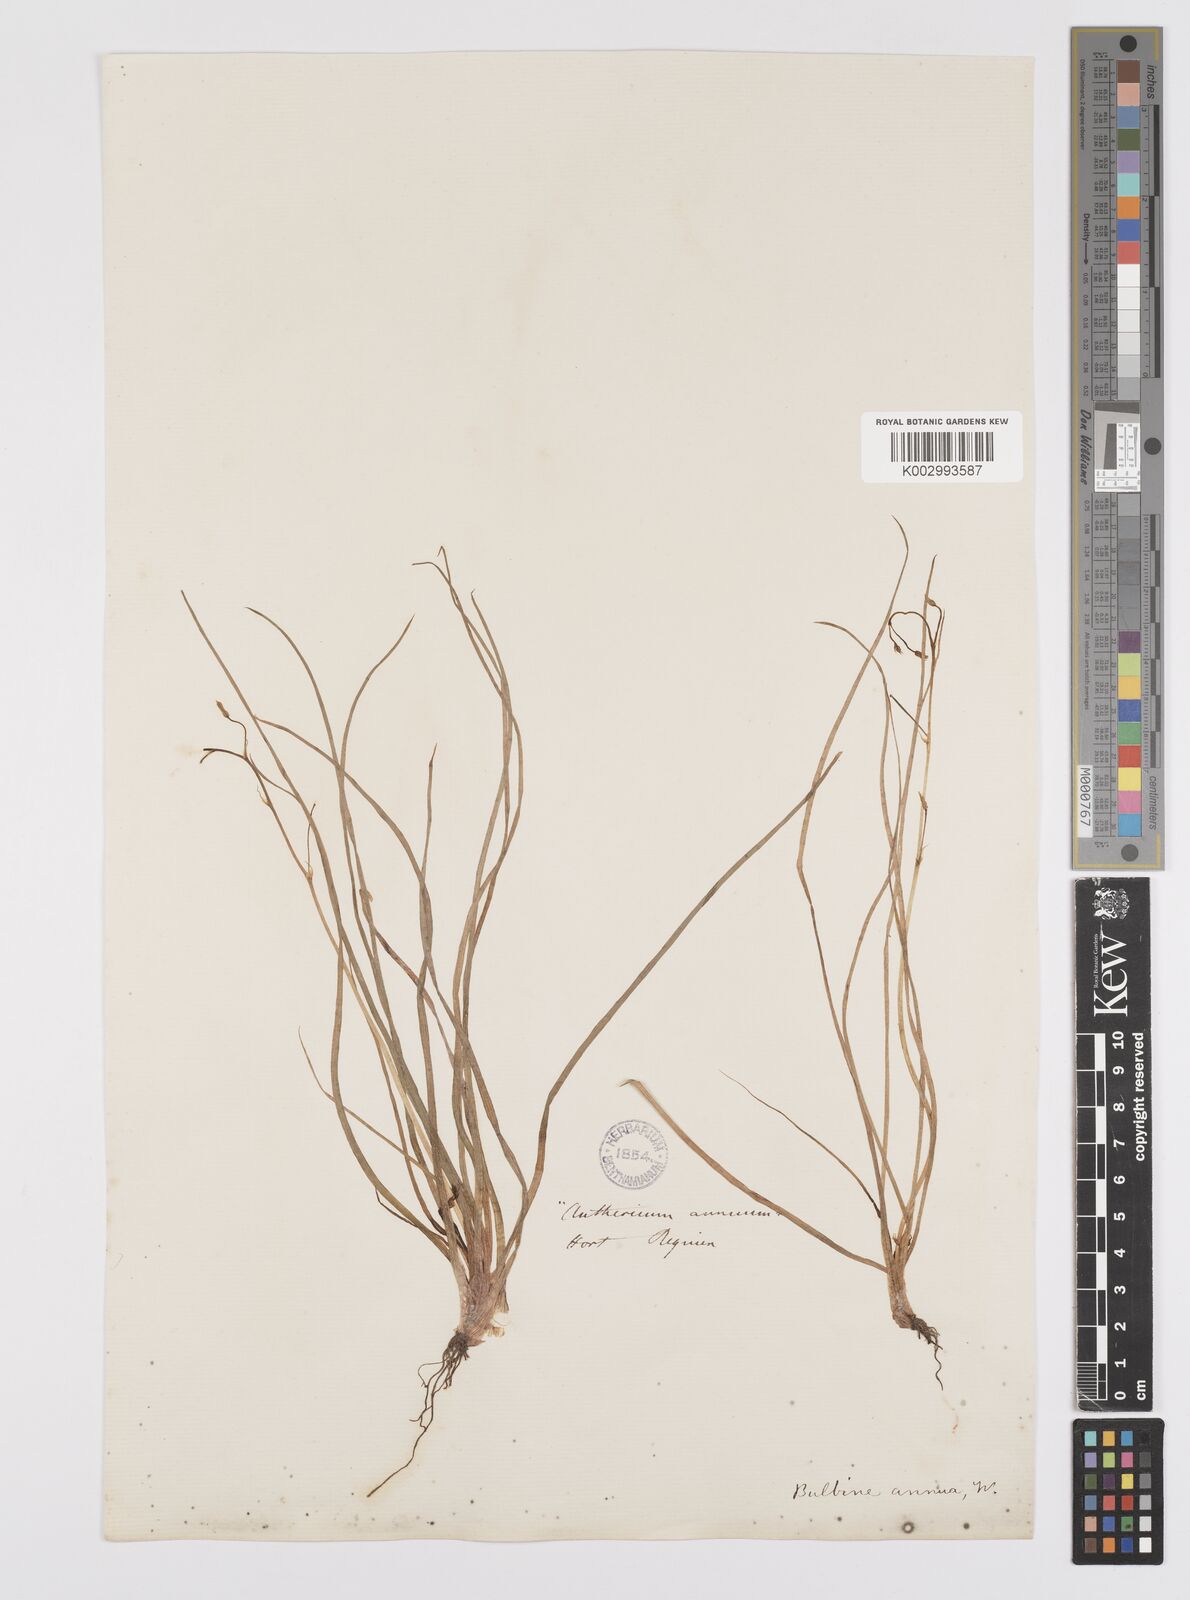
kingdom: Plantae
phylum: Tracheophyta
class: Liliopsida
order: Asparagales
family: Asphodelaceae
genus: Bulbine
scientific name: Bulbine annua
